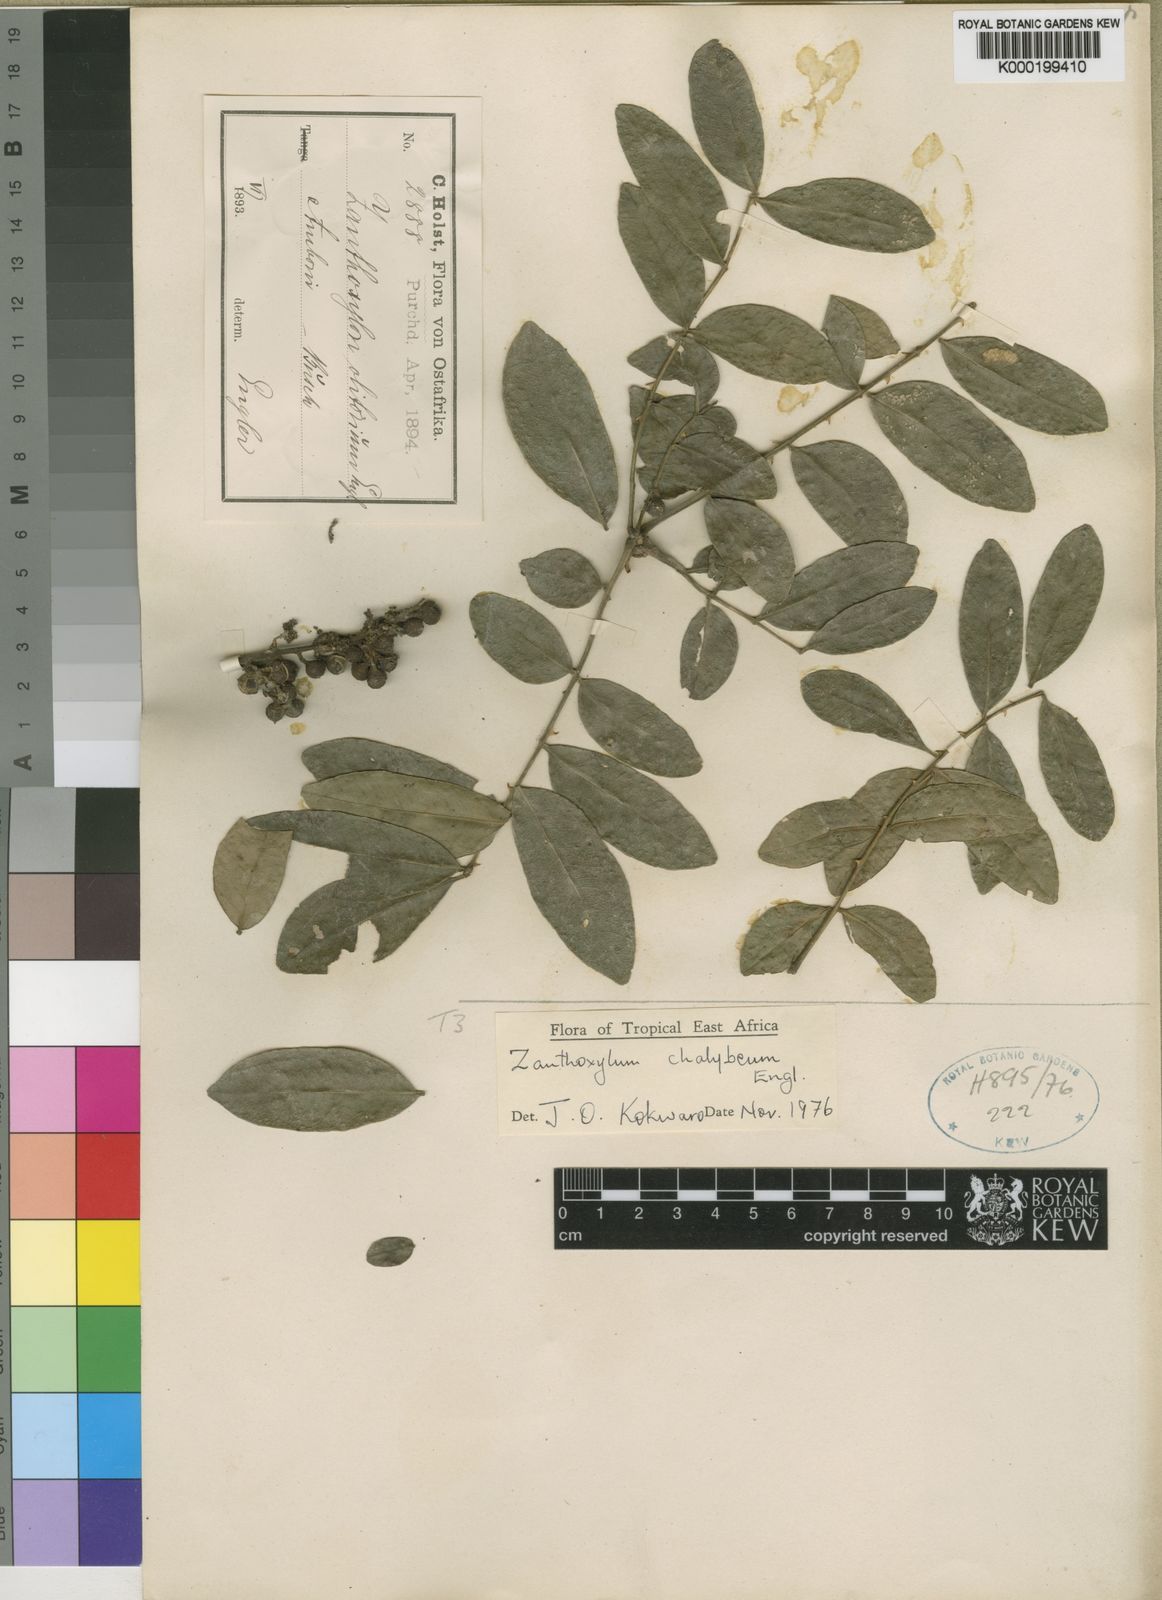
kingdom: Plantae
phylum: Tracheophyta
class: Magnoliopsida
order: Sapindales
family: Rutaceae
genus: Zanthoxylum
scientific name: Zanthoxylum chalybaeum
